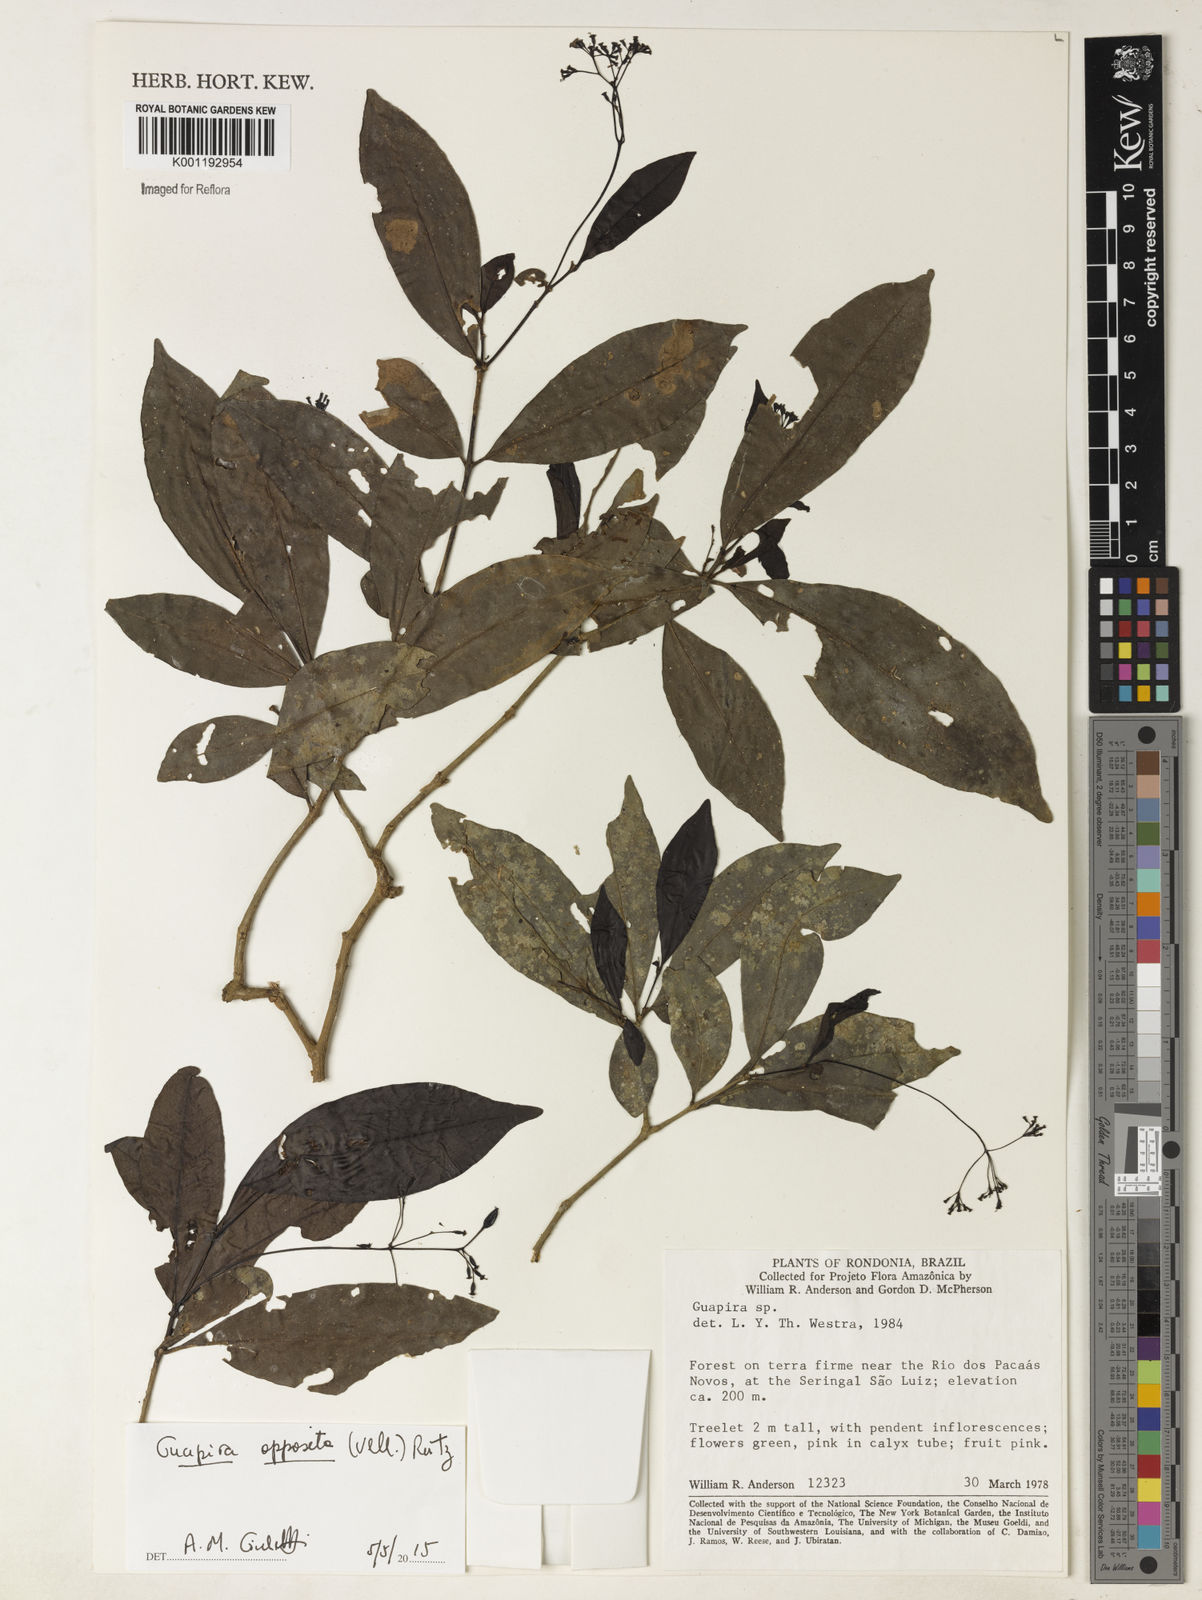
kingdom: Plantae
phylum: Tracheophyta
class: Magnoliopsida
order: Caryophyllales
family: Nyctaginaceae
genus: Guapira
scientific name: Guapira opposita
